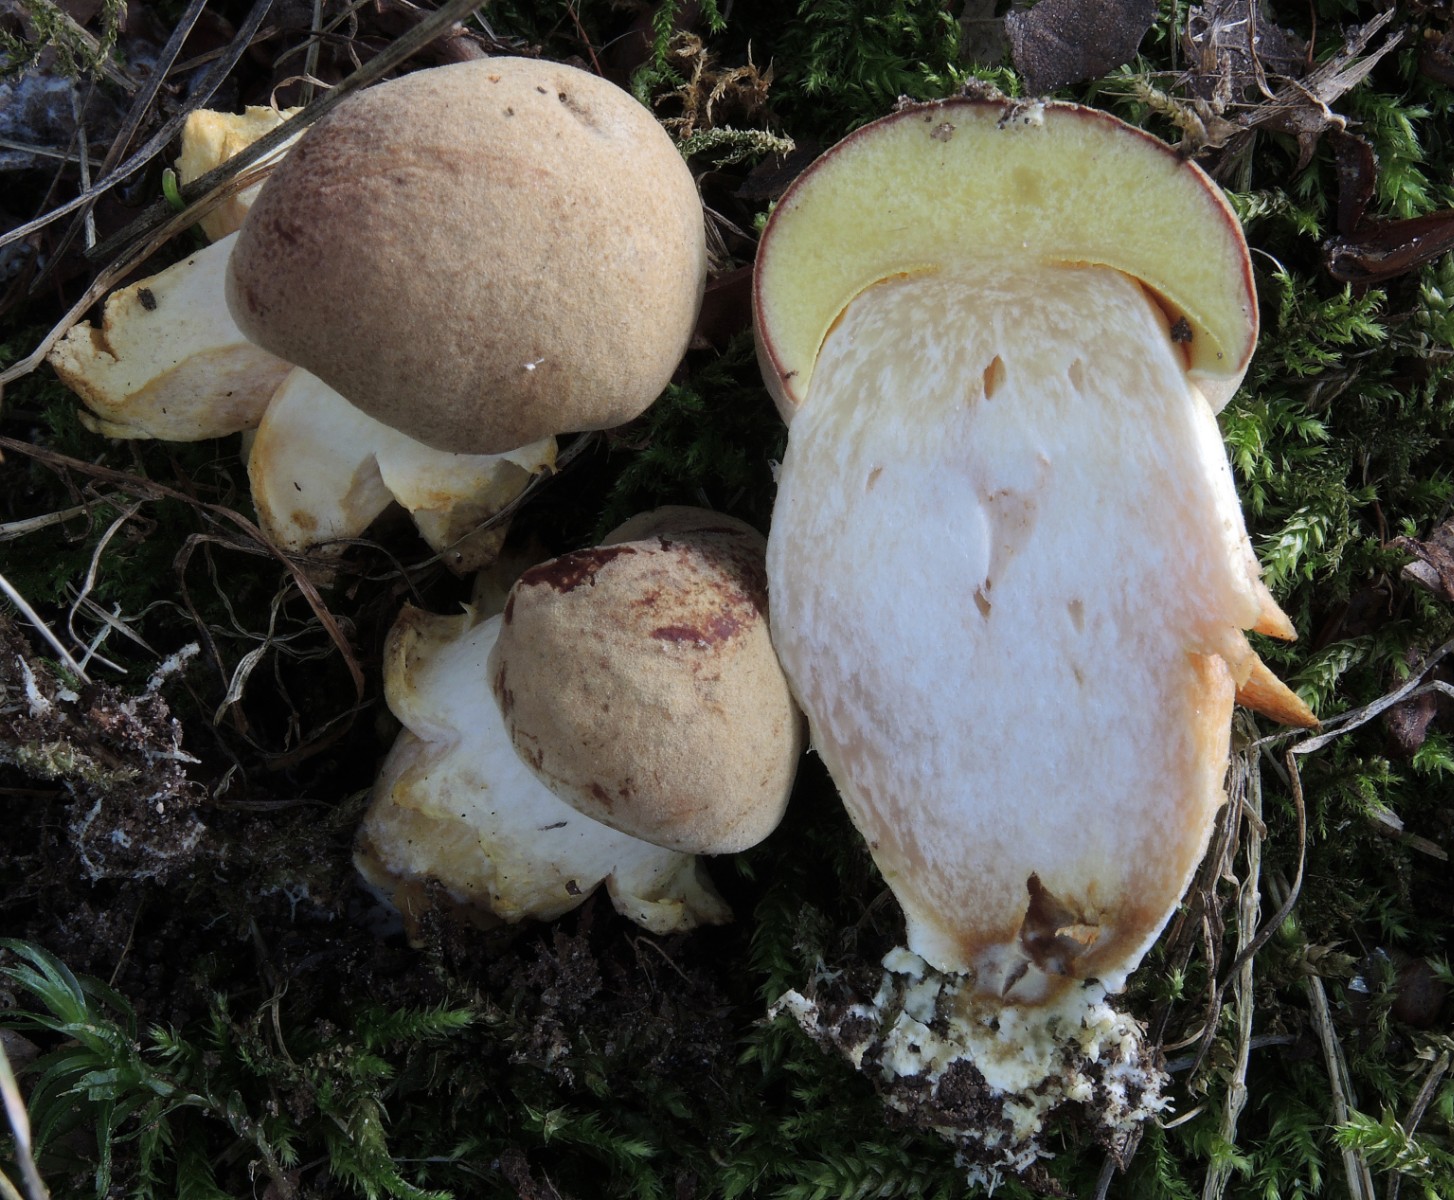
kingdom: Fungi
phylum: Basidiomycota
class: Agaricomycetes
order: Boletales
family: Boletaceae
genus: Xerocomus
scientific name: Xerocomus subtomentosus
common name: filtet rørhat
